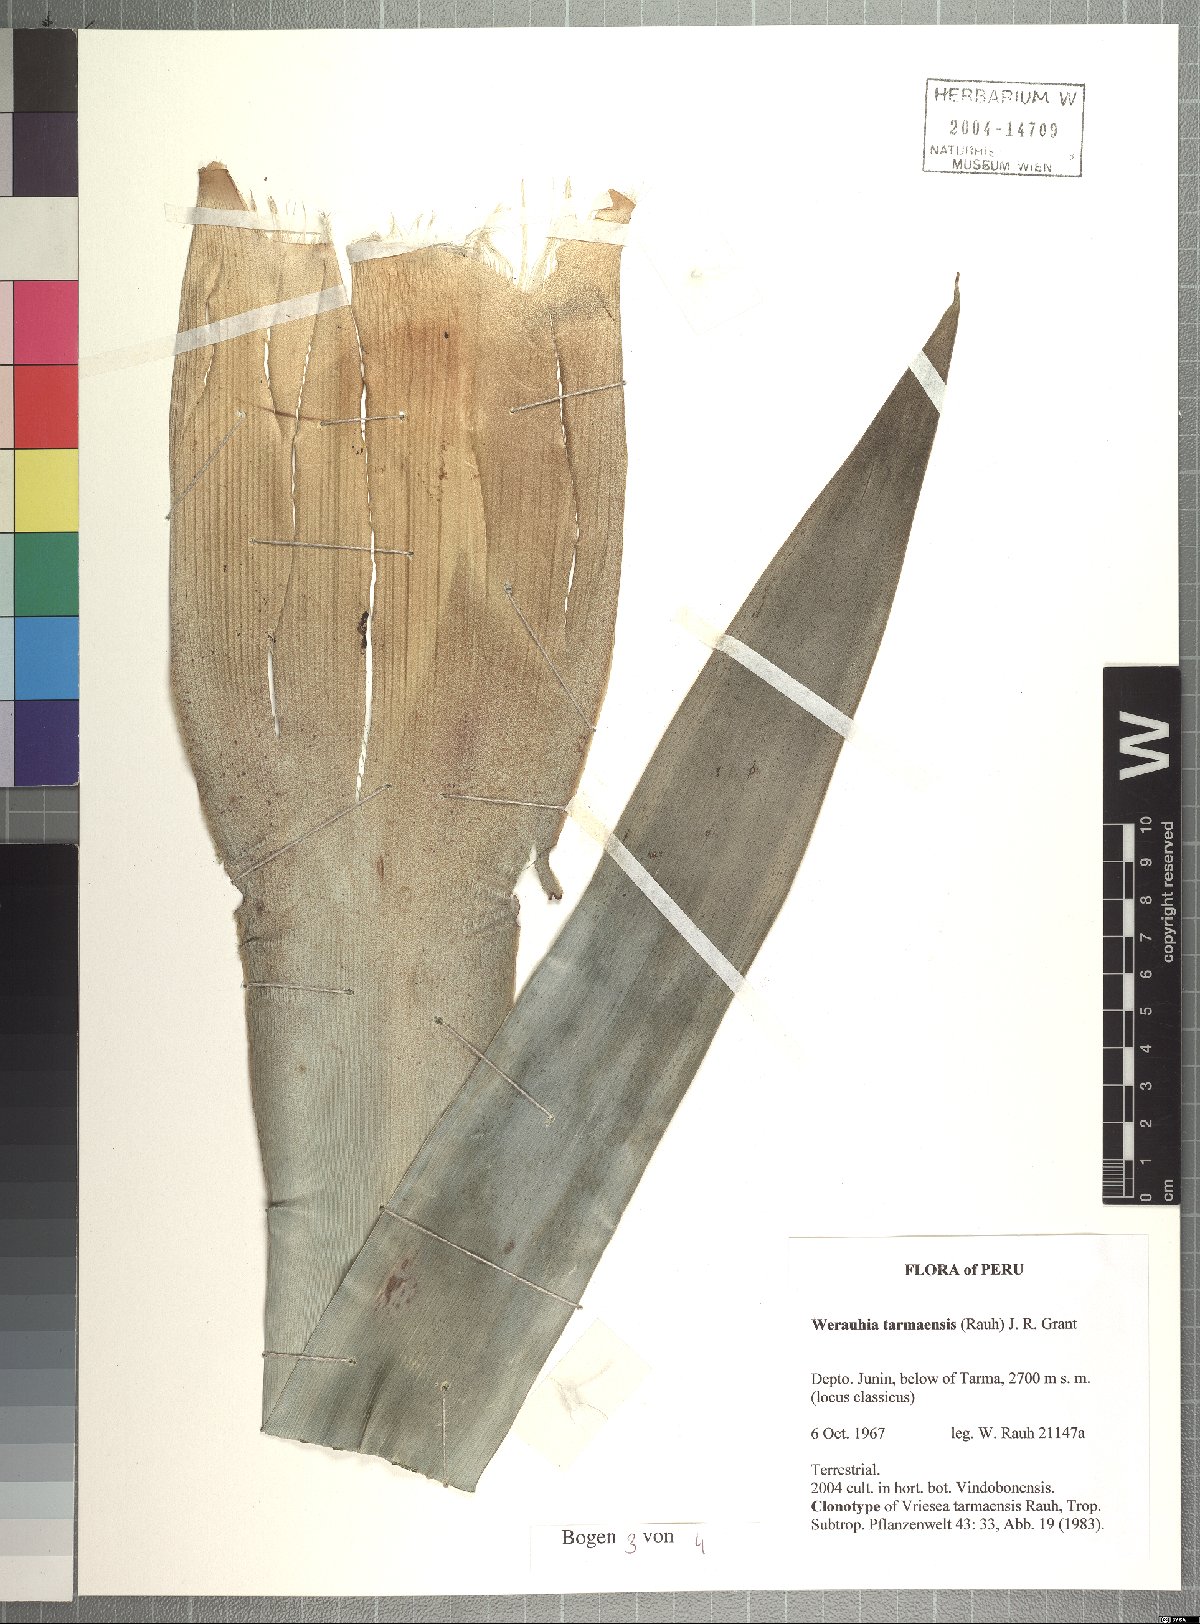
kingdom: Plantae
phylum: Tracheophyta
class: Liliopsida
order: Poales
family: Bromeliaceae
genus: Werauhia
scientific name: Werauhia tarmaensis
